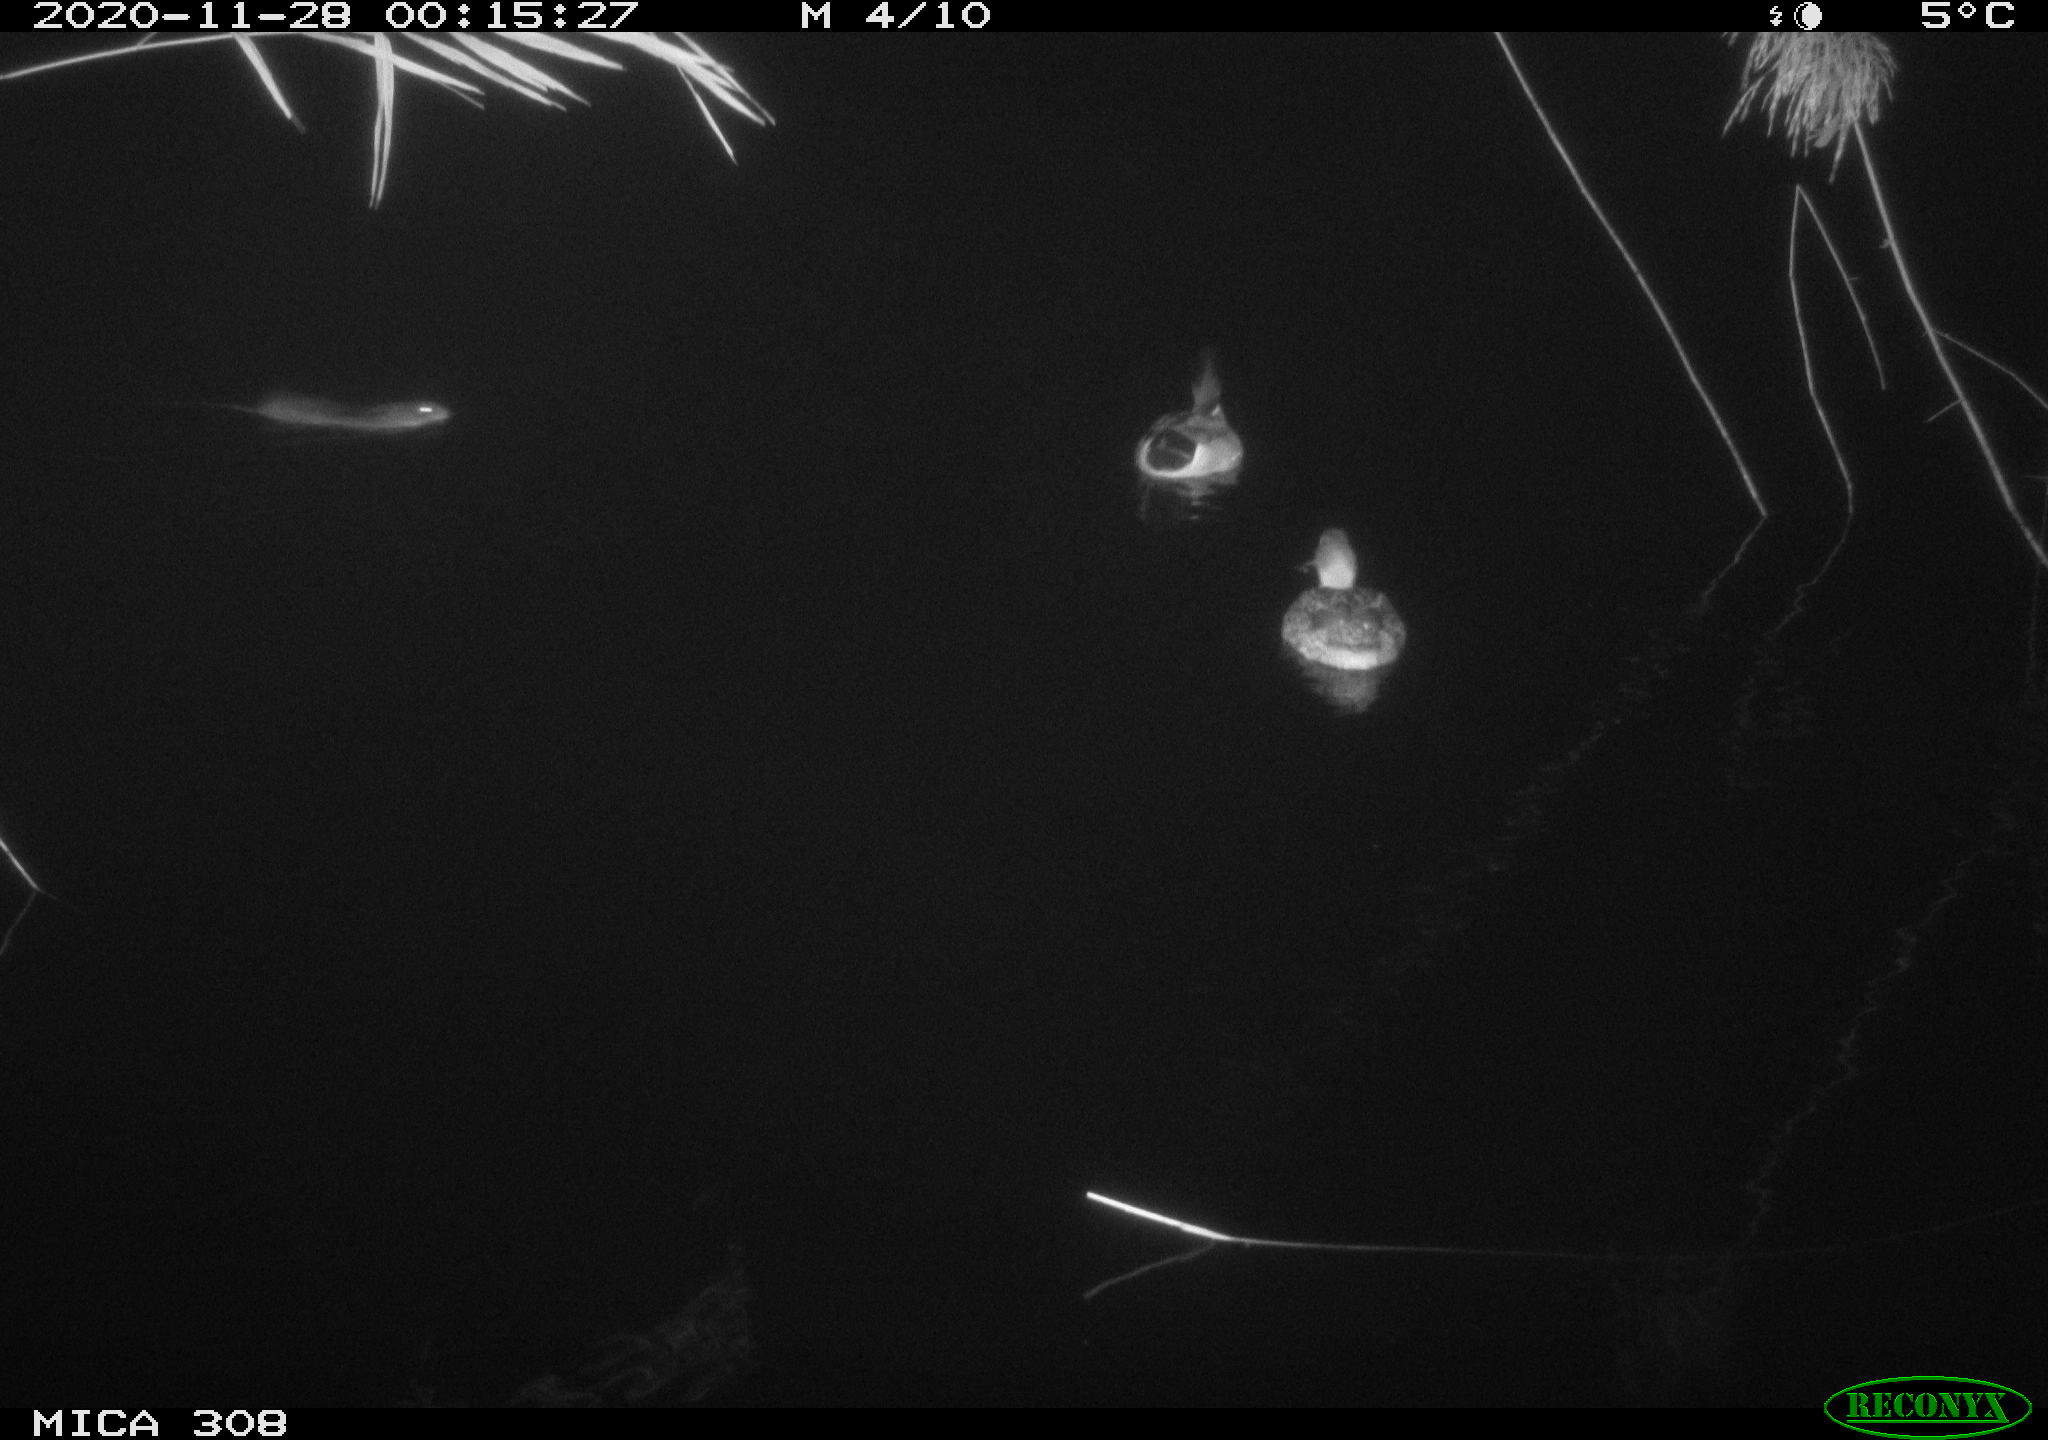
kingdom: Animalia
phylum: Chordata
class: Mammalia
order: Rodentia
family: Muridae
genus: Rattus
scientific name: Rattus norvegicus
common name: Brown rat
